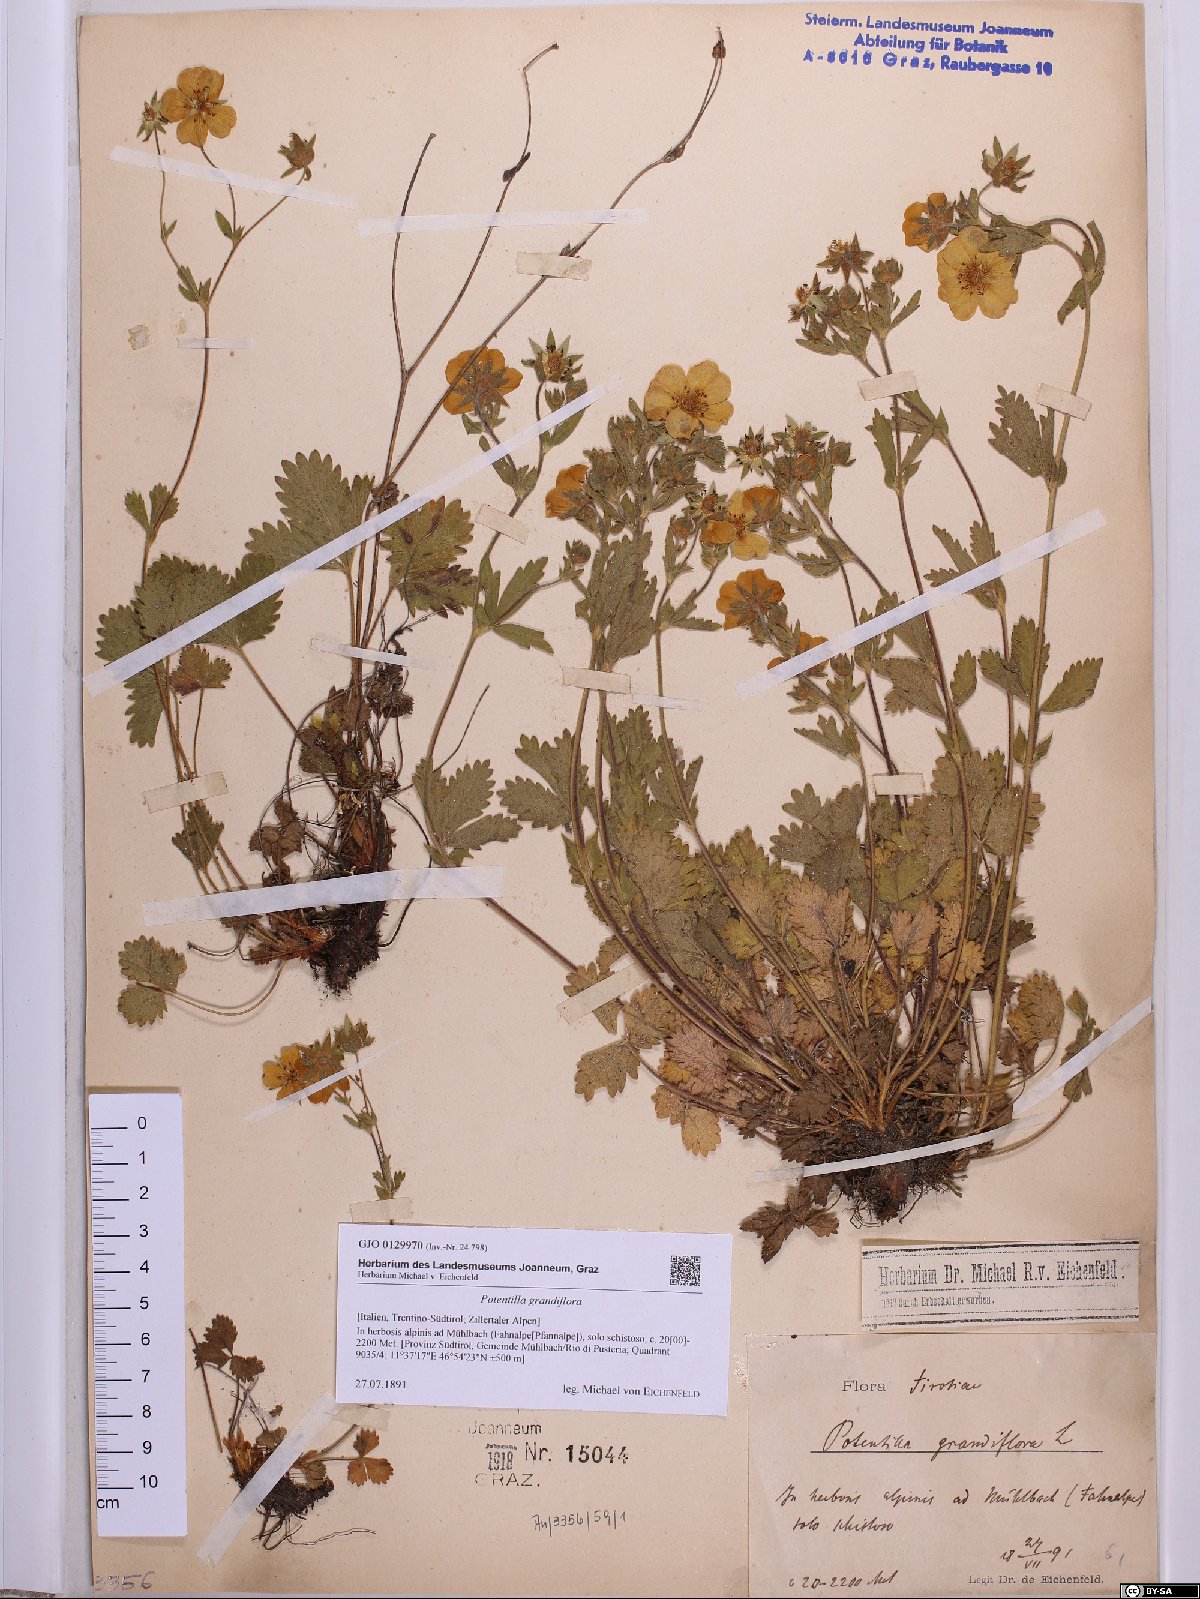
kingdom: Plantae
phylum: Tracheophyta
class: Magnoliopsida
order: Rosales
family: Rosaceae
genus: Potentilla
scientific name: Potentilla grandiflora
